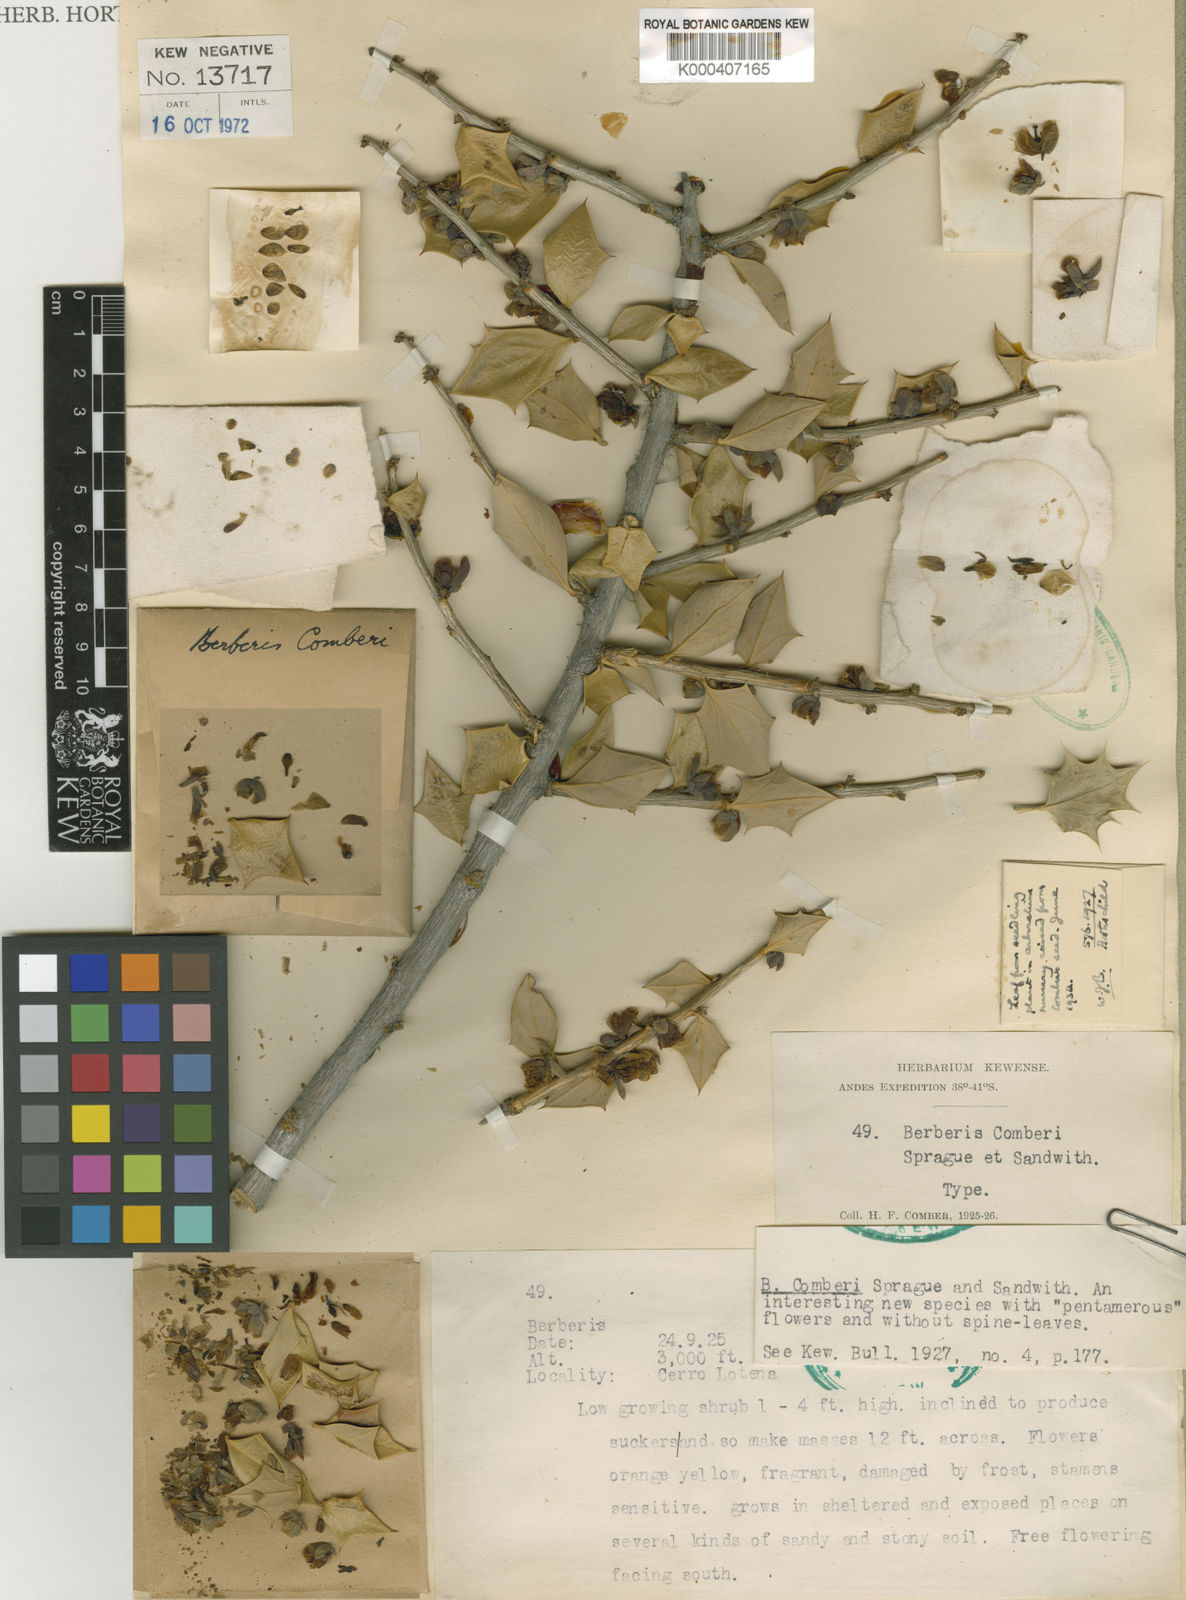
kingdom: Plantae
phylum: Tracheophyta
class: Magnoliopsida
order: Ranunculales
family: Berberidaceae
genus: Berberis
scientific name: Berberis comberi
